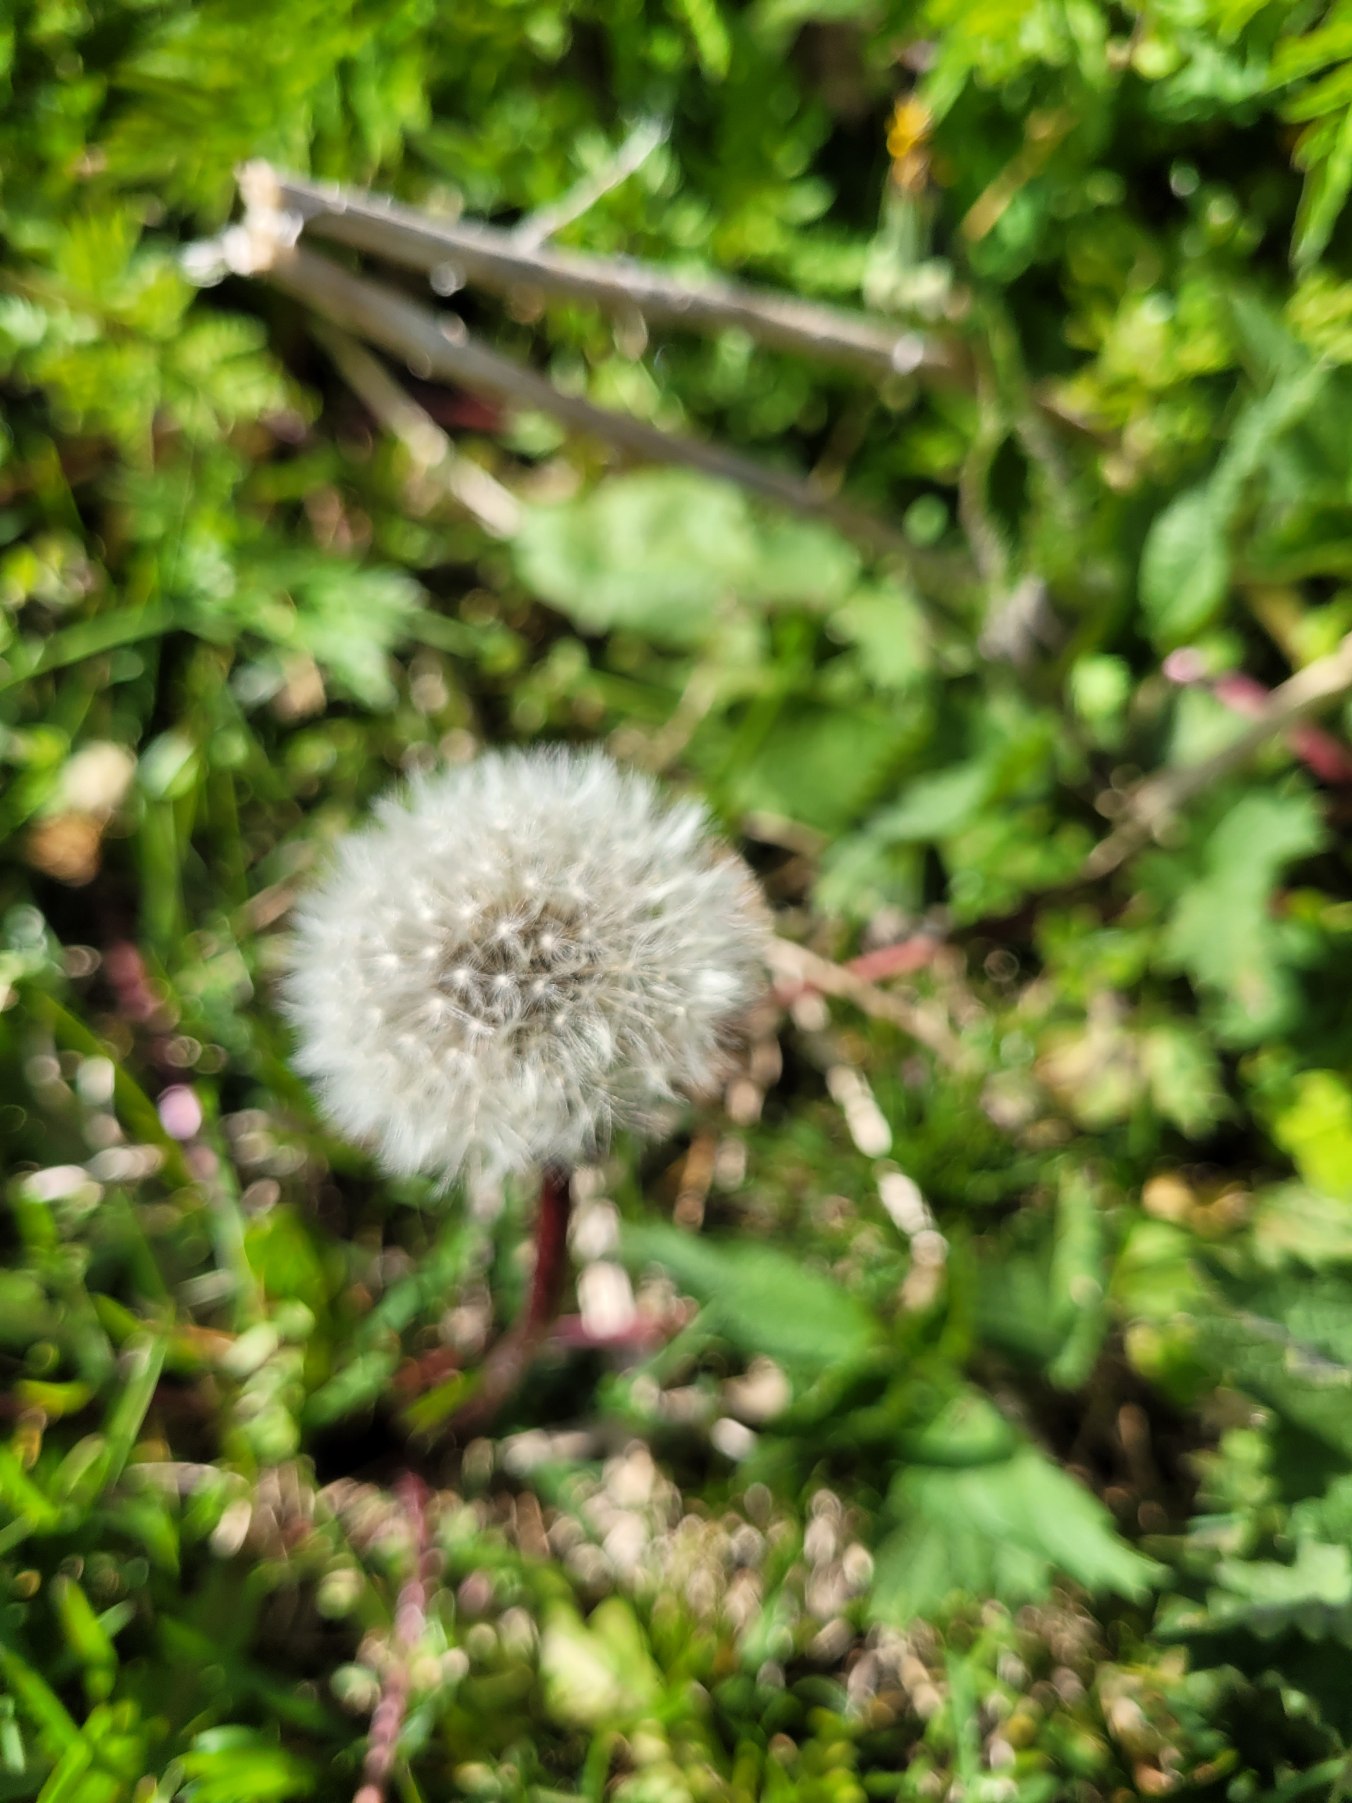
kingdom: Plantae
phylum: Tracheophyta
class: Magnoliopsida
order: Asterales
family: Asteraceae
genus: Taraxacum
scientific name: Taraxacum
